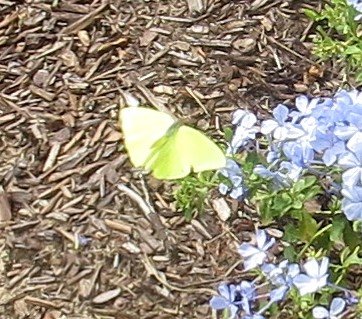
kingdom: Animalia
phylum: Arthropoda
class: Insecta
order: Lepidoptera
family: Pieridae
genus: Phoebis
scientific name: Phoebis sennae
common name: Cloudless Sulphur
